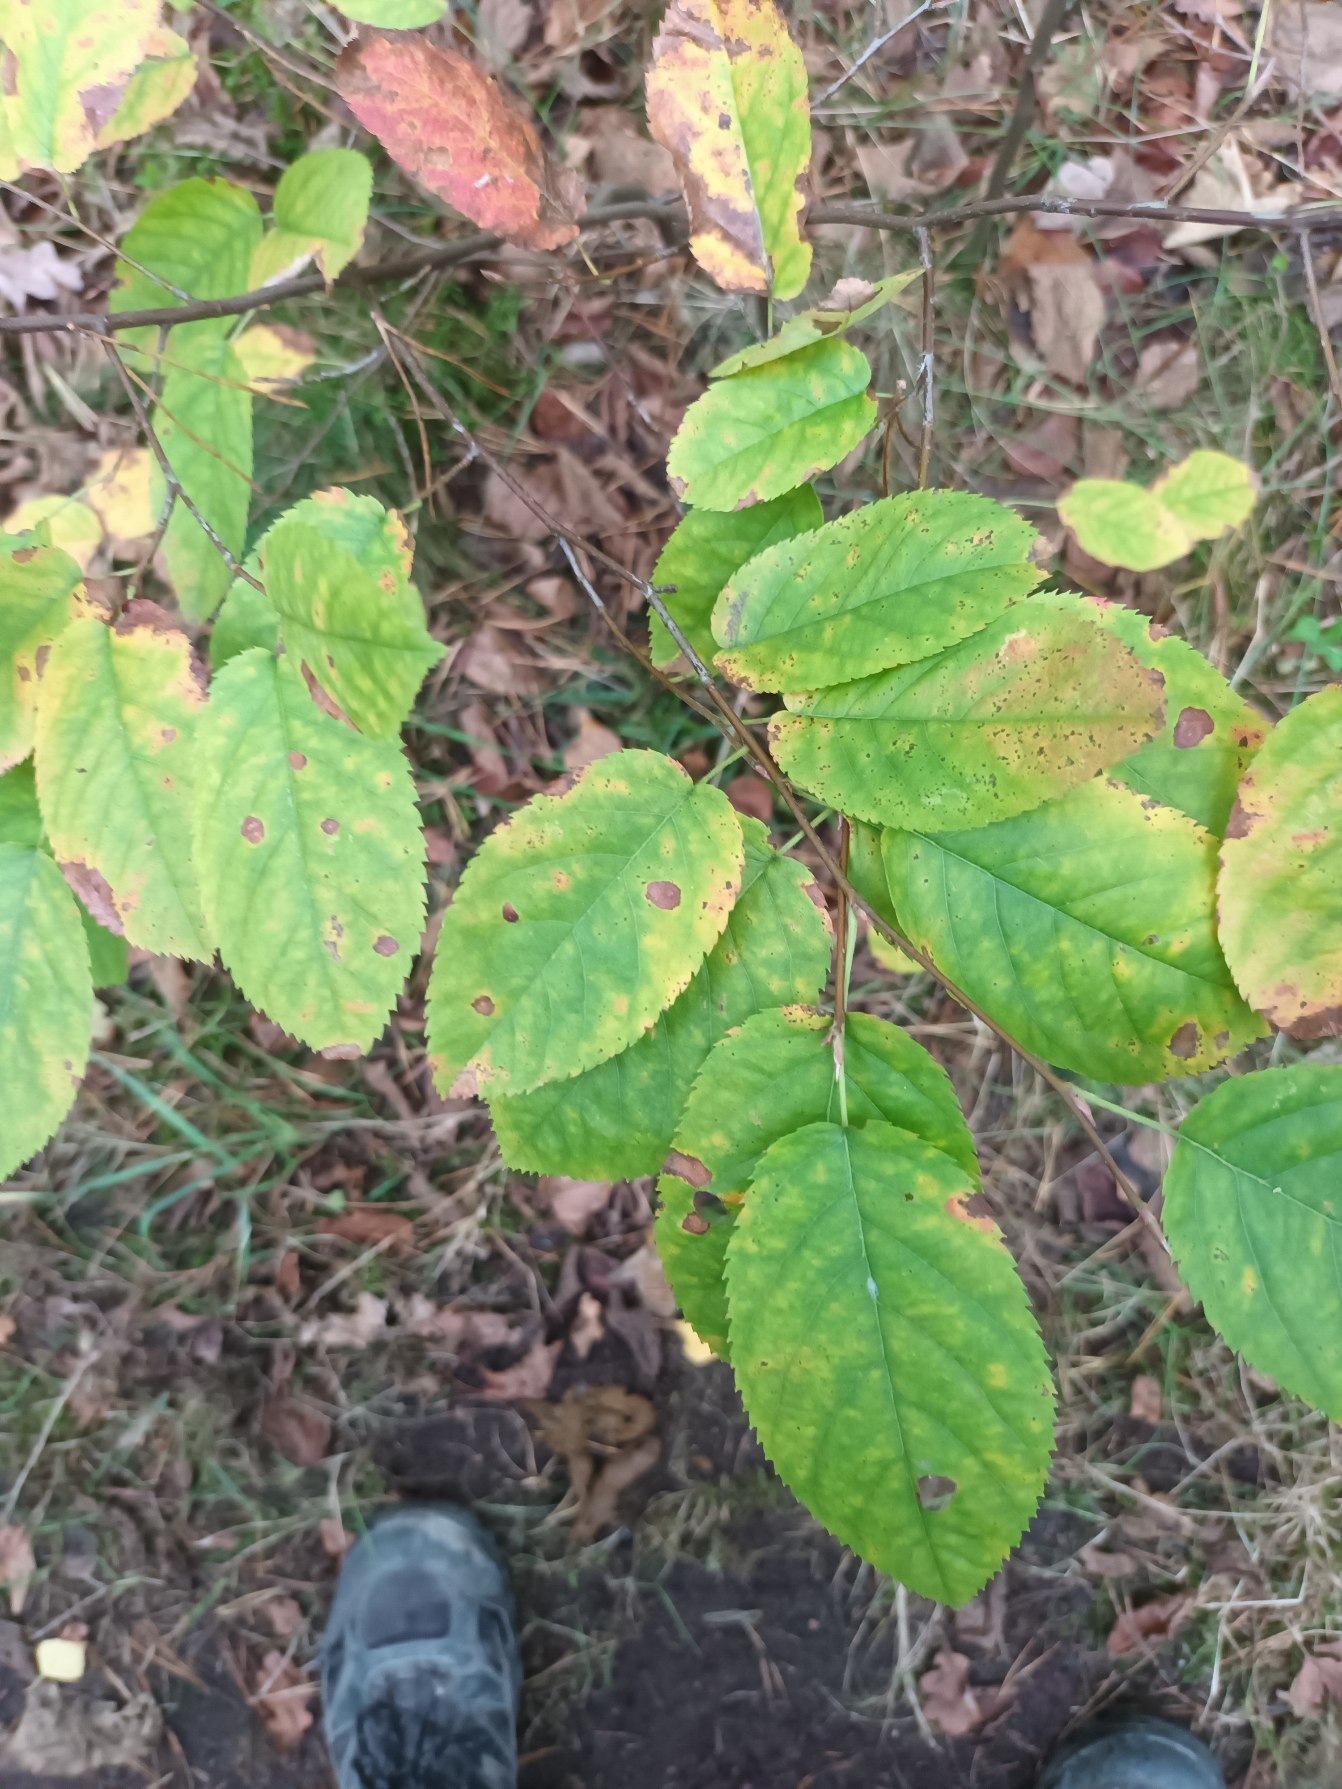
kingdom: Plantae
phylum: Tracheophyta
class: Magnoliopsida
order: Rosales
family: Rosaceae
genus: Amelanchier
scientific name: Amelanchier lamarckii
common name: Bærmispel
